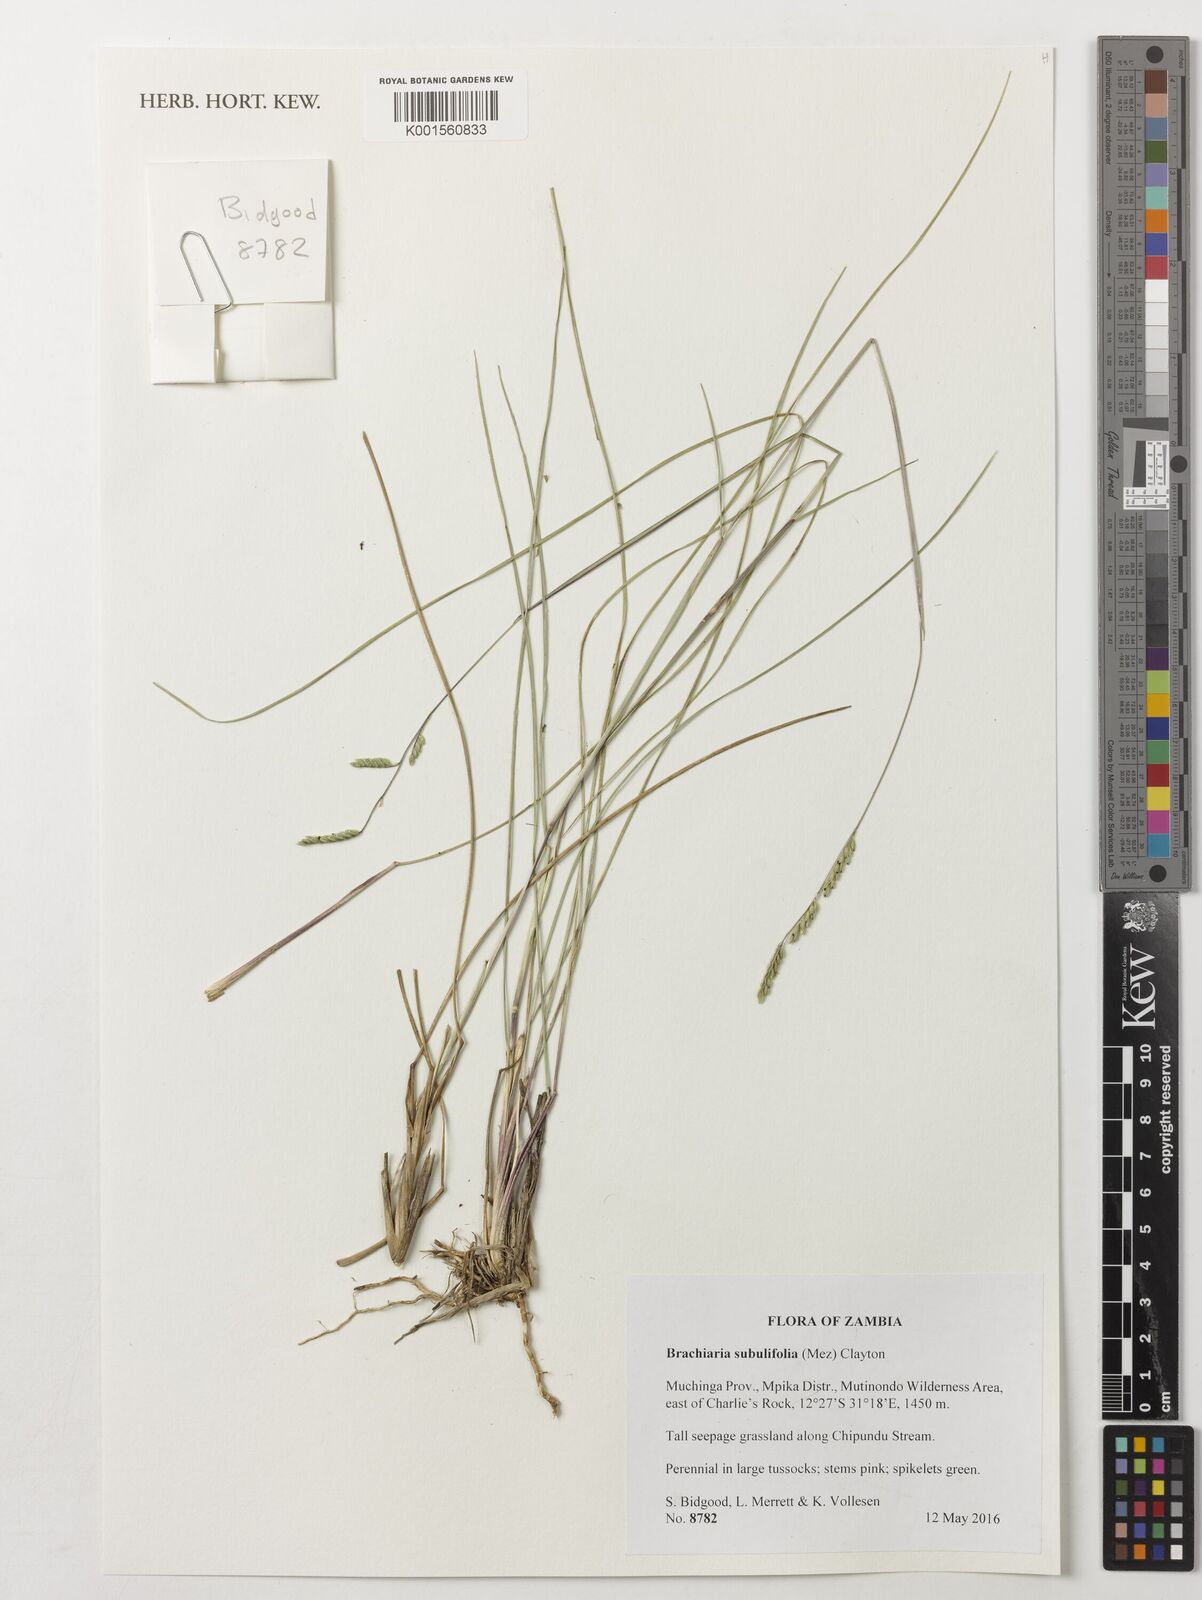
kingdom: Plantae
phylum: Tracheophyta
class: Liliopsida
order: Poales
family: Poaceae
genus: Urochloa
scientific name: Urochloa subulifolia
